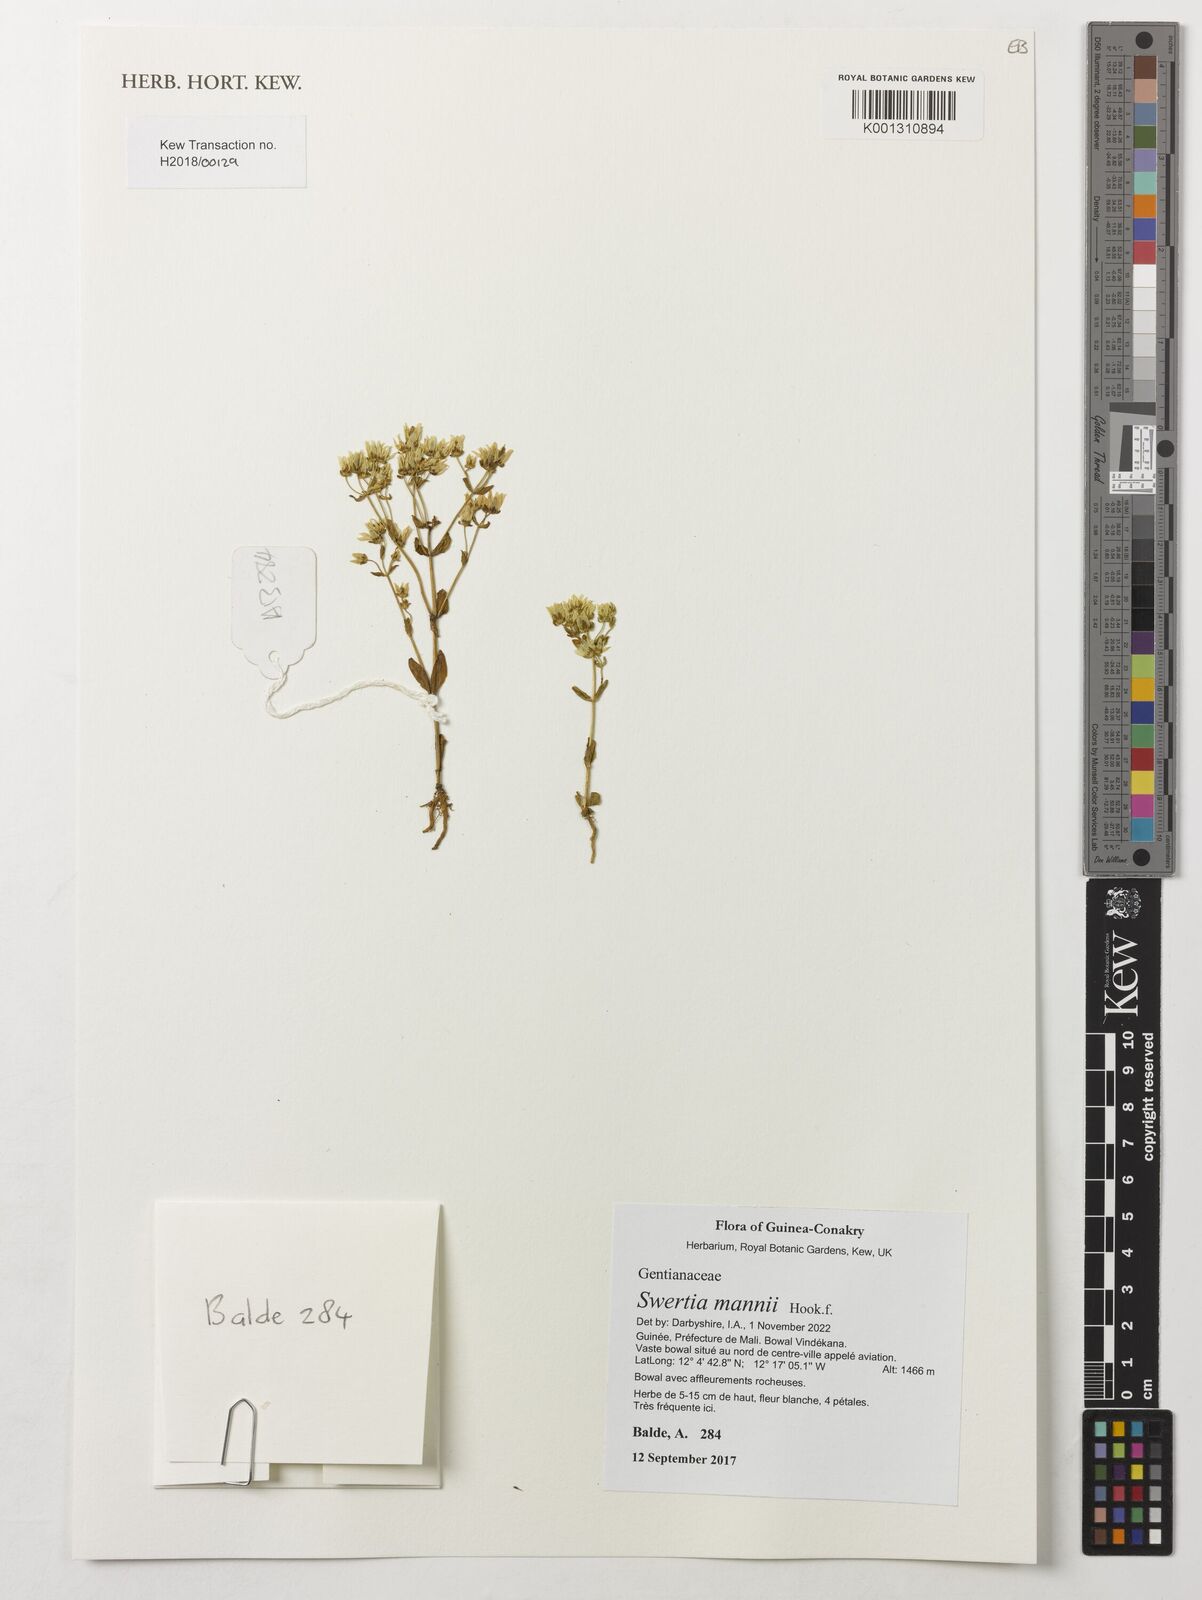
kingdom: Plantae
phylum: Tracheophyta
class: Magnoliopsida
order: Gentianales
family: Gentianaceae
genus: Swertia
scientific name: Swertia mannii
